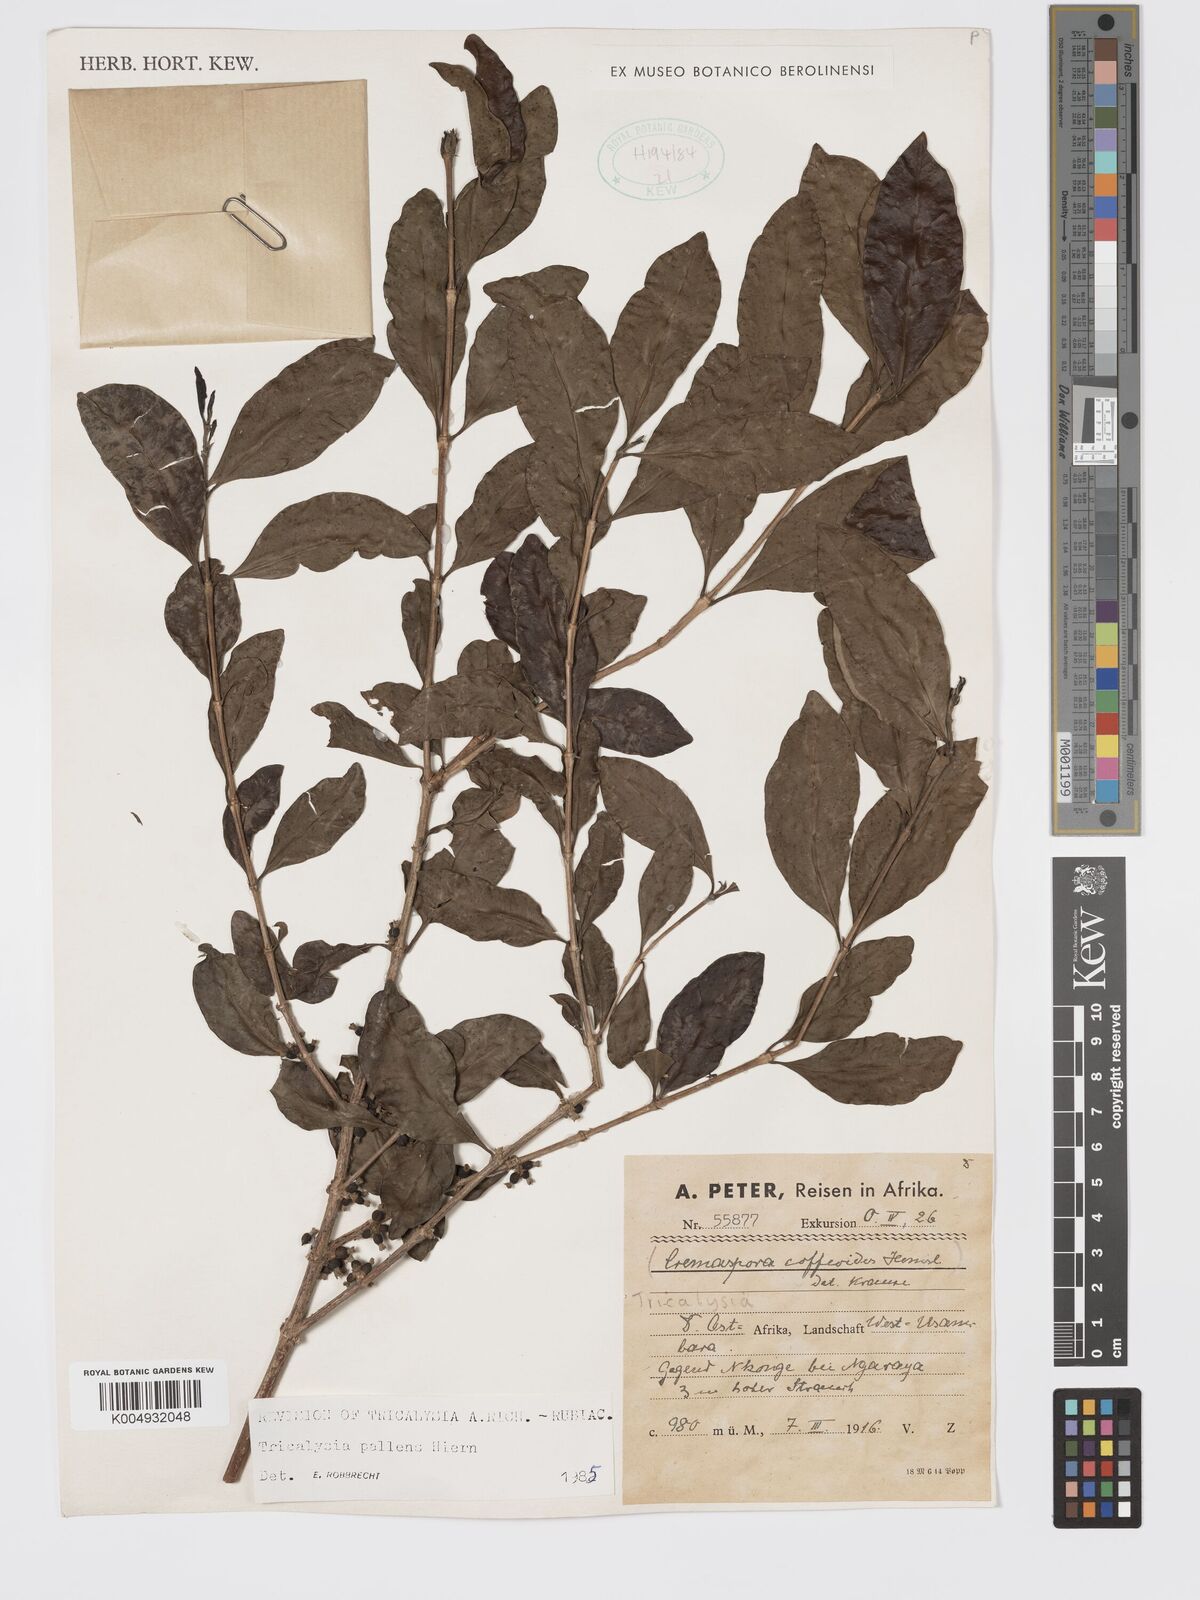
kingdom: Plantae
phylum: Tracheophyta
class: Magnoliopsida
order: Gentianales
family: Rubiaceae
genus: Tricalysia
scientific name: Tricalysia pallens
